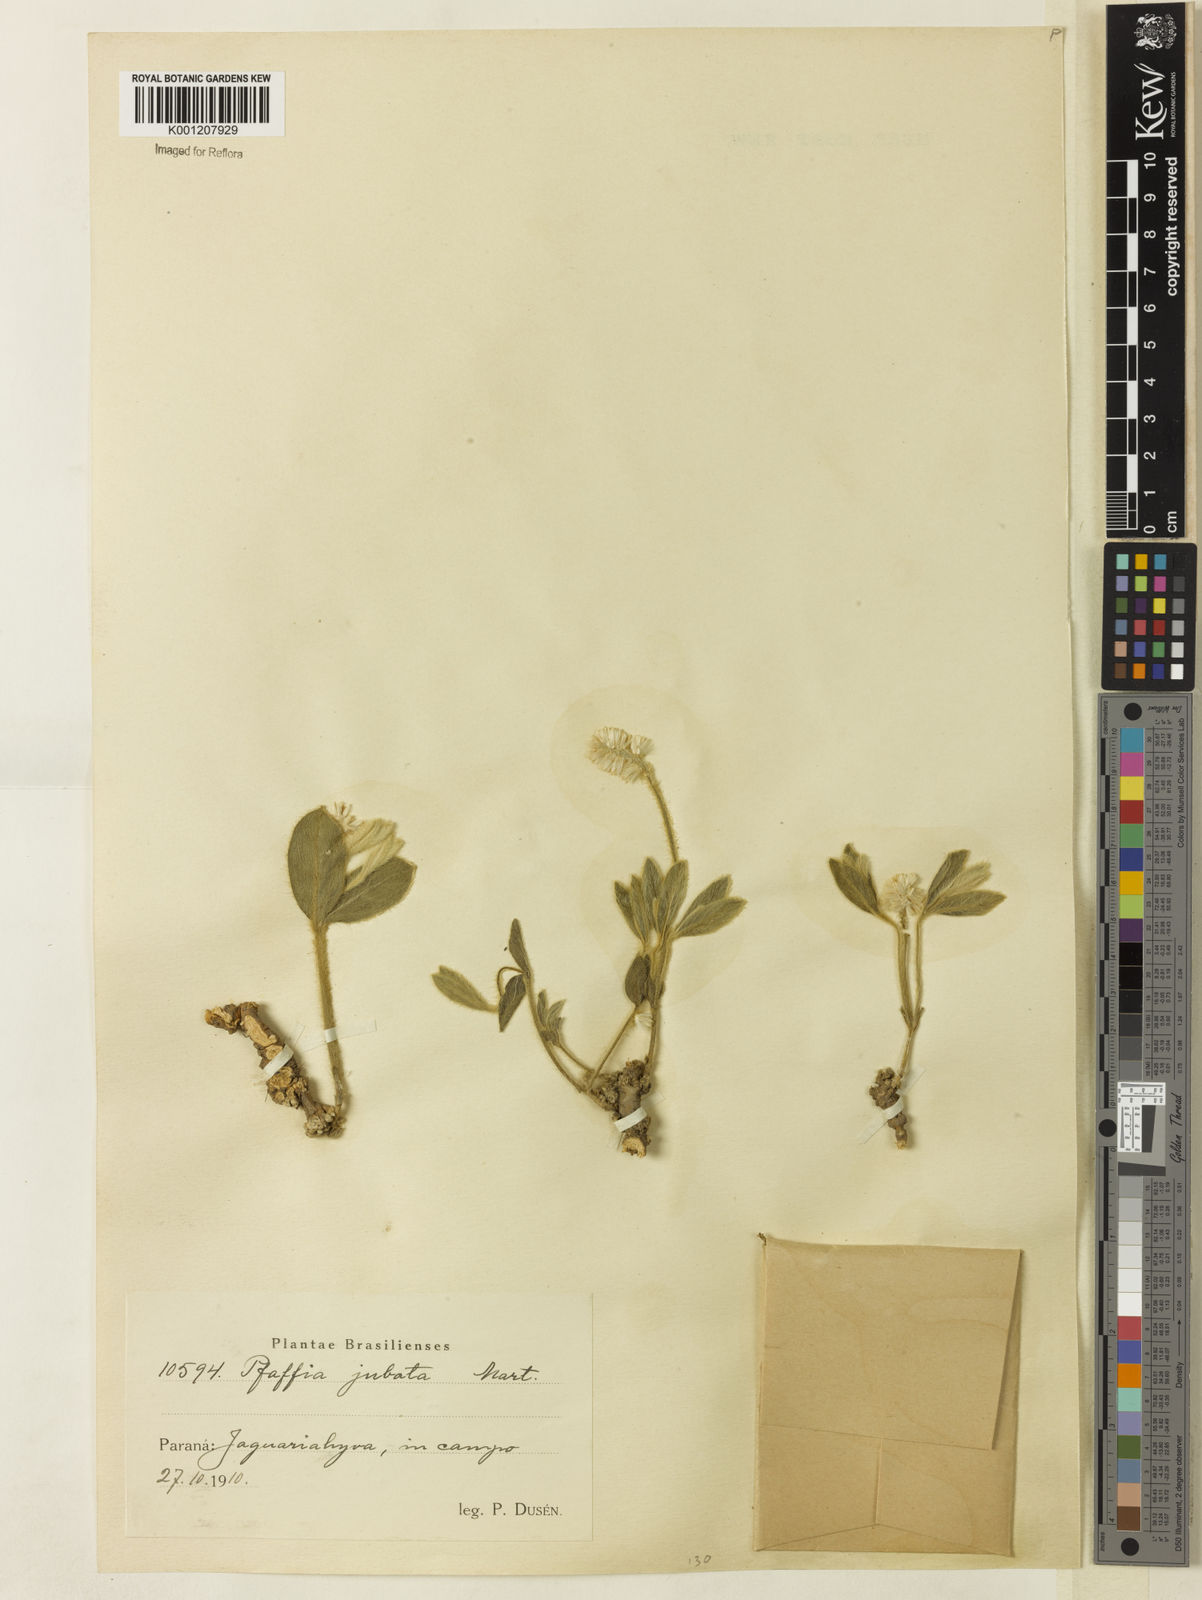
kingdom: Plantae
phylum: Tracheophyta
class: Magnoliopsida
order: Caryophyllales
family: Amaranthaceae
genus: Pfaffia
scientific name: Pfaffia jubata
